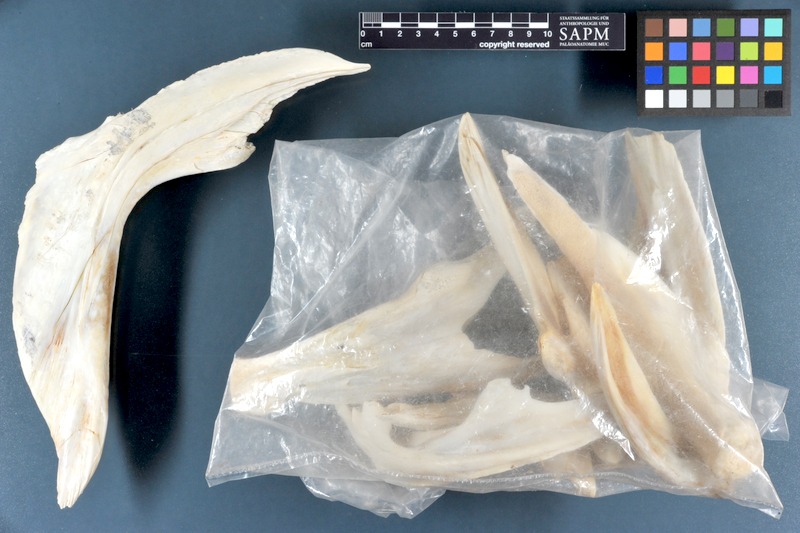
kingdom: Animalia
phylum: Chordata
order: Perciformes
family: Latidae
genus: Lates
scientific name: Lates niloticus
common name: Nile perch
